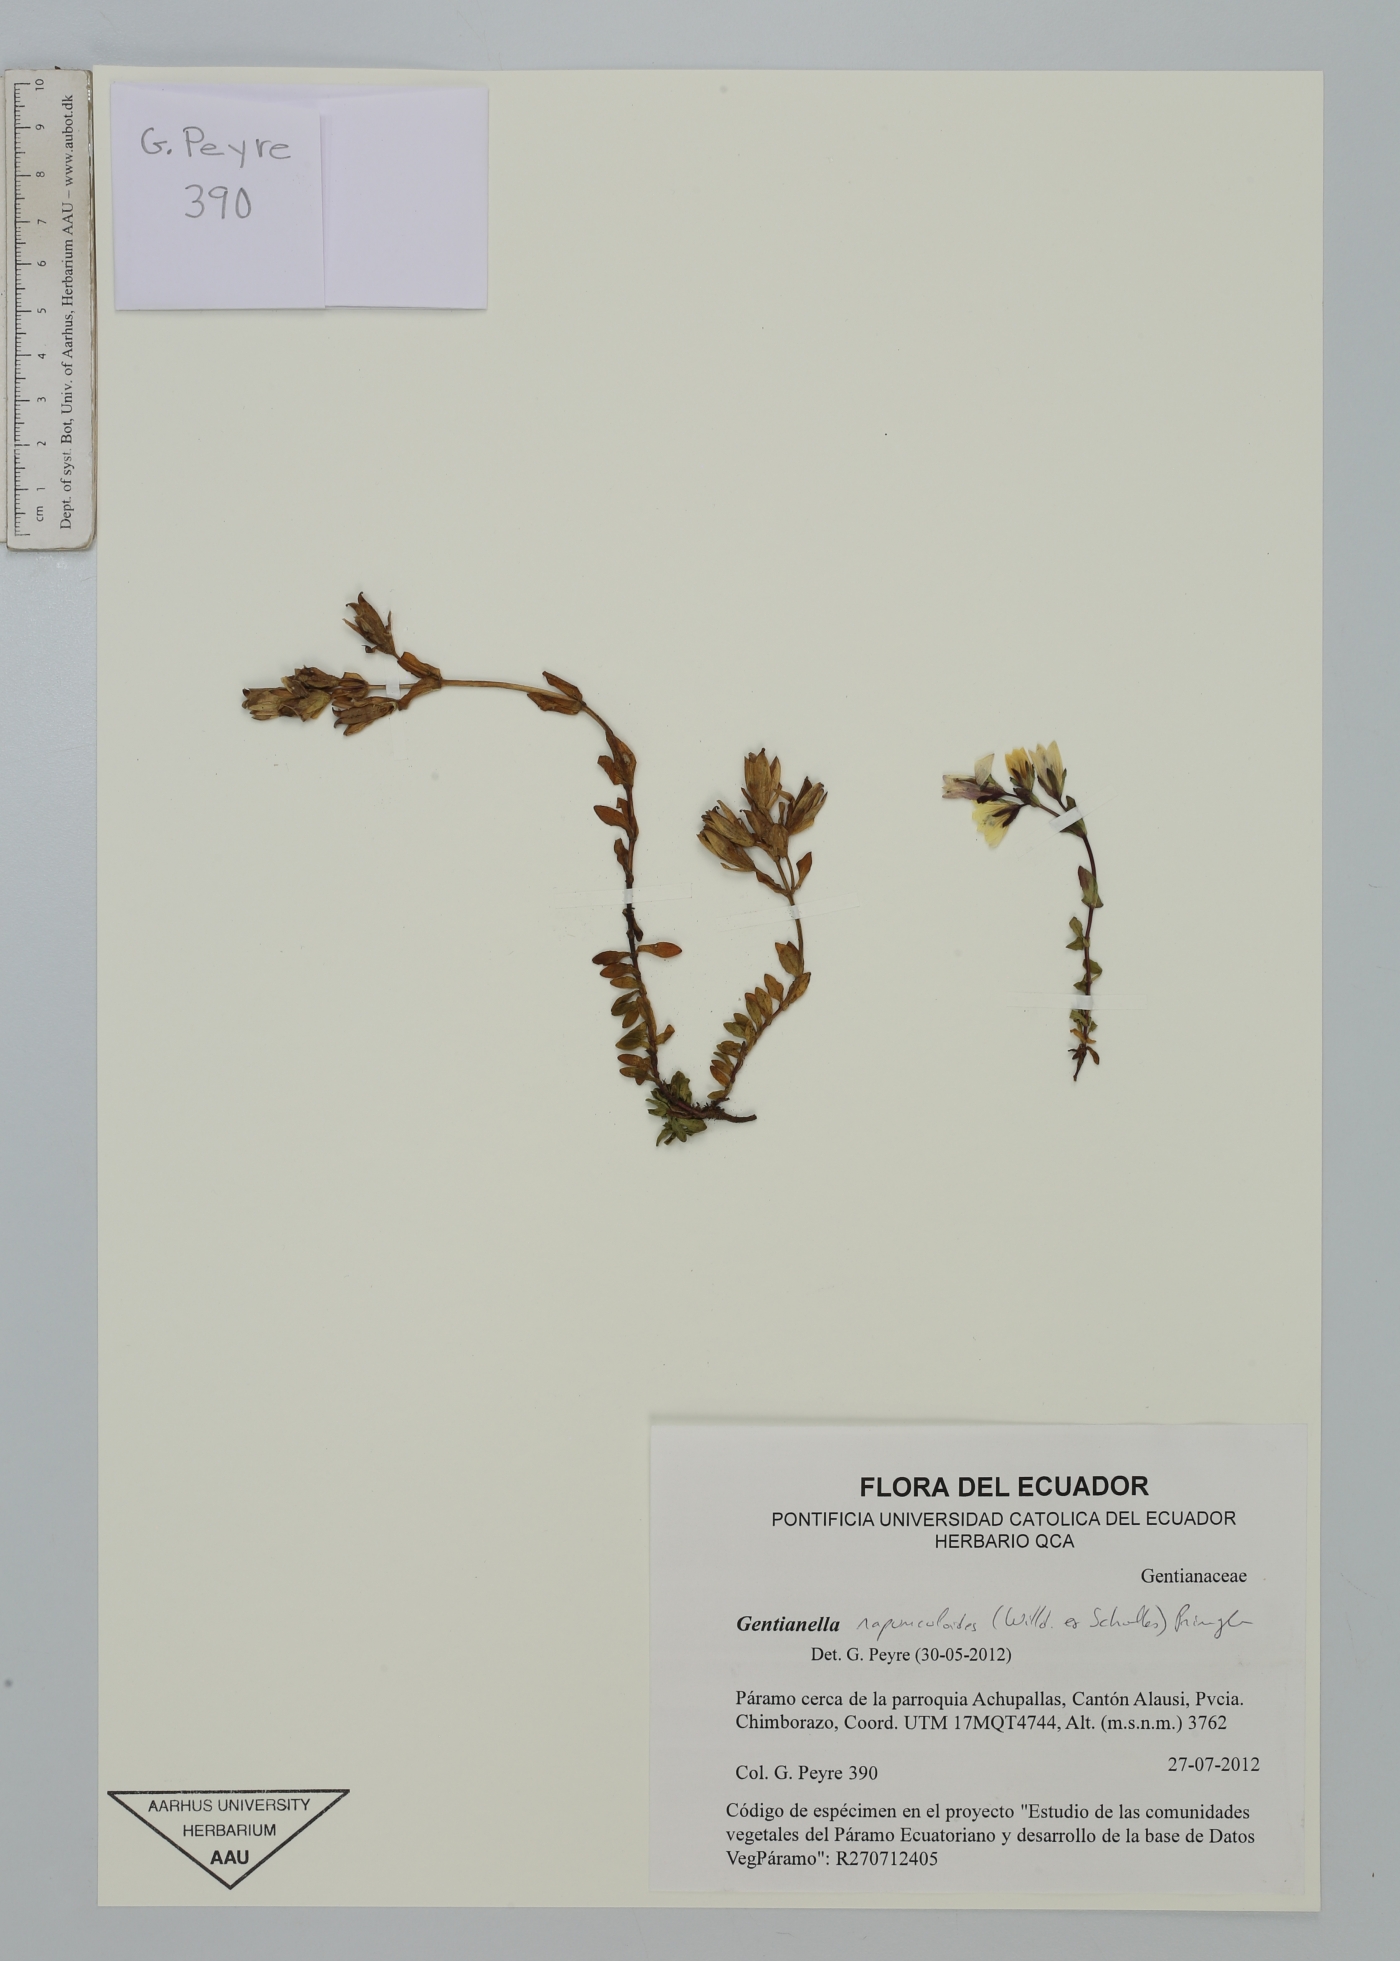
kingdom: Plantae
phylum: Tracheophyta
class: Magnoliopsida
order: Gentianales
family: Gentianaceae
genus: Gentianella
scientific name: Gentianella rapunculoides
